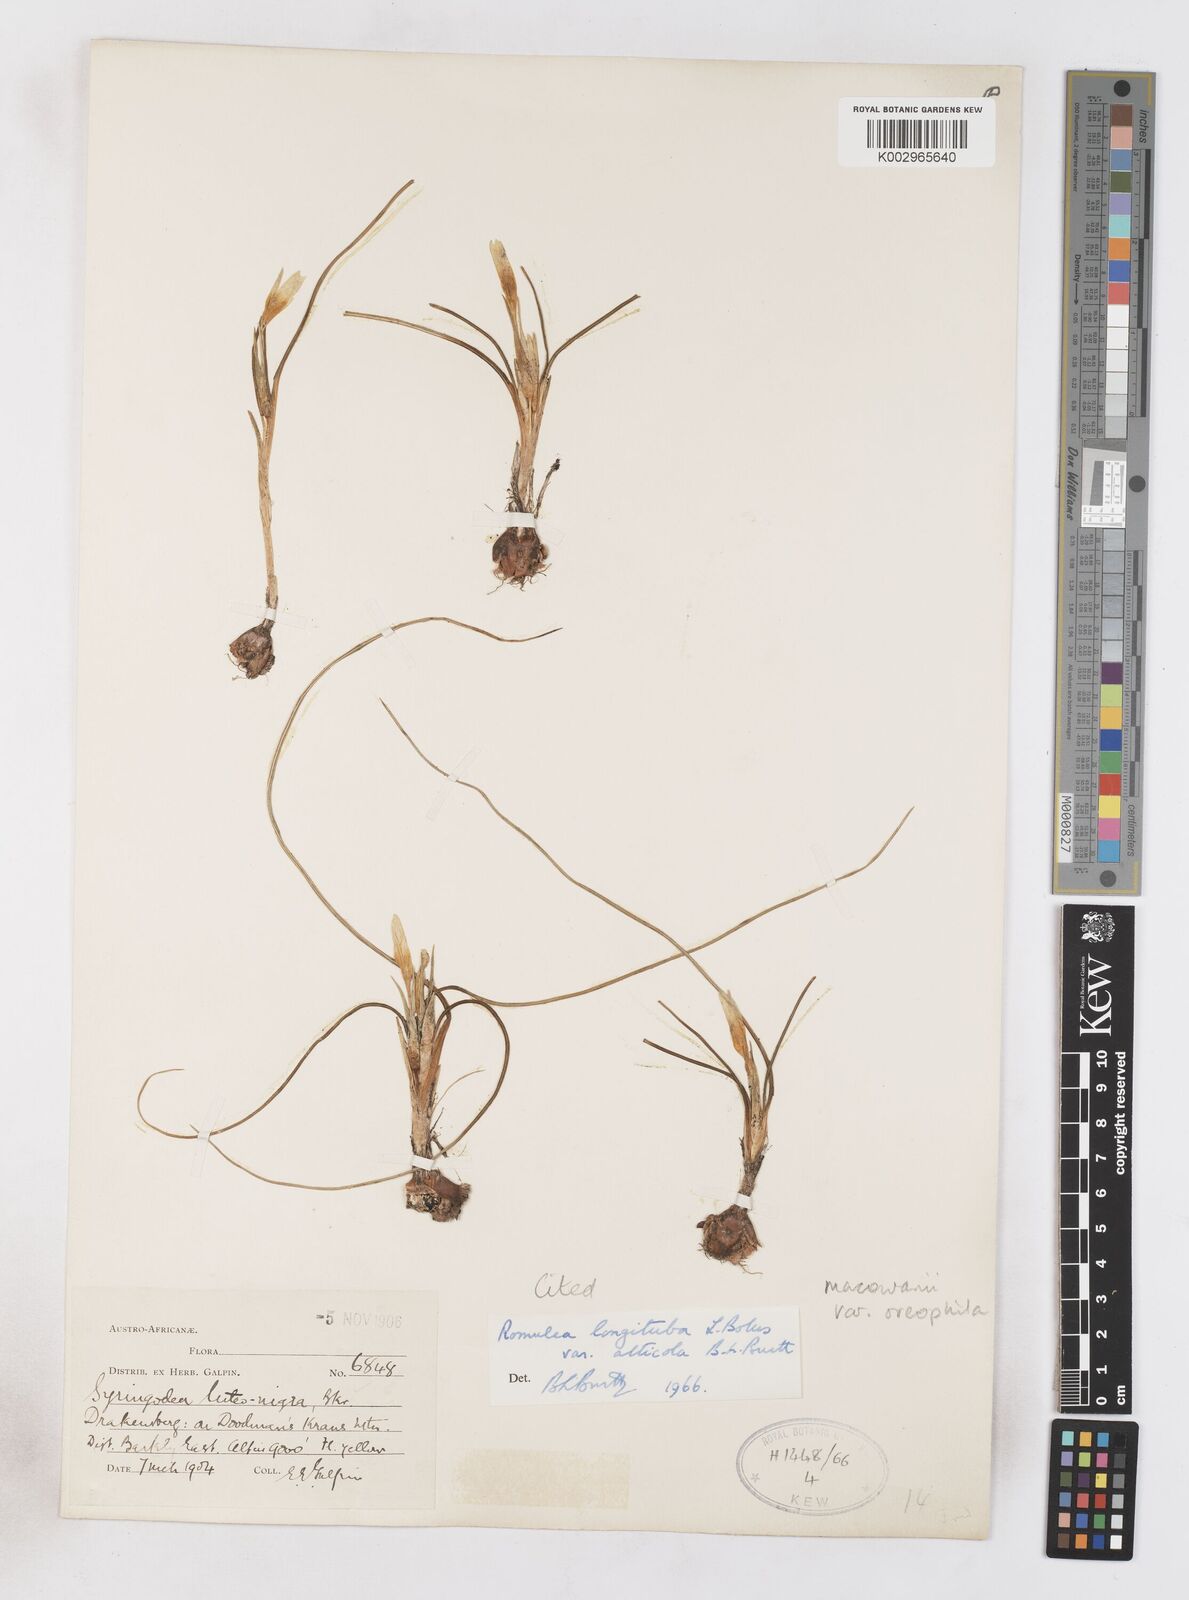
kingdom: Plantae
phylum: Tracheophyta
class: Liliopsida
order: Asparagales
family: Iridaceae
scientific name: Iridaceae
